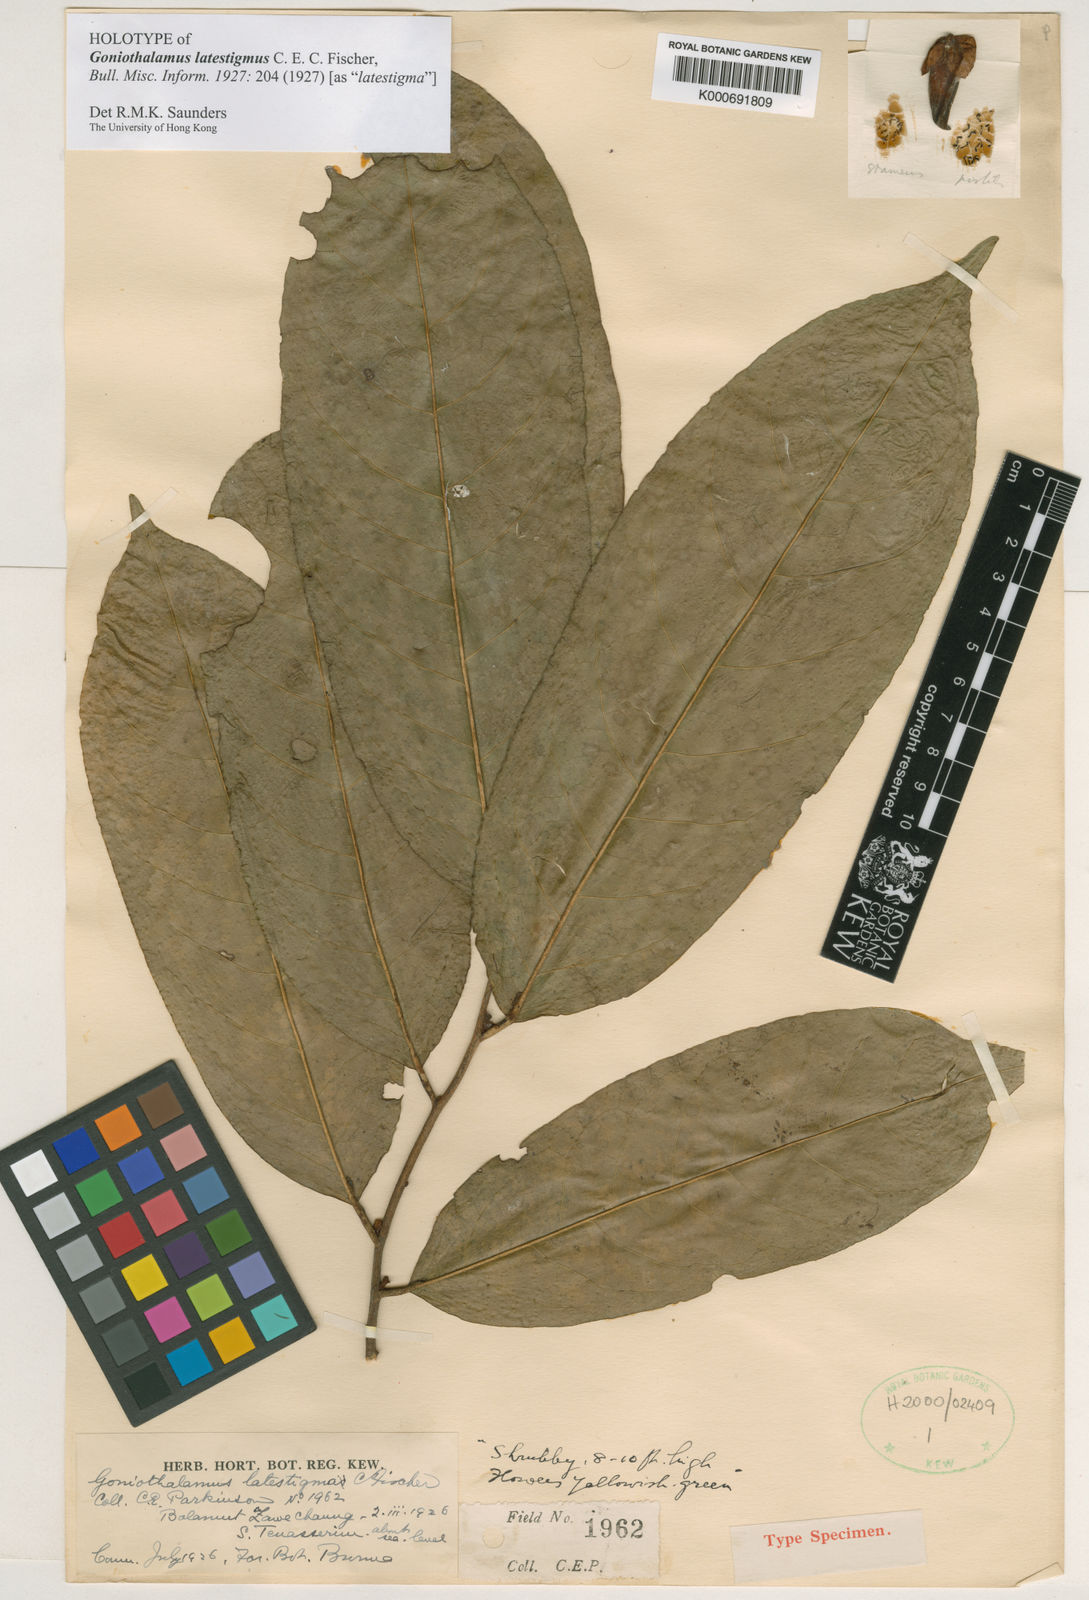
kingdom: Plantae
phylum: Tracheophyta
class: Magnoliopsida
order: Magnoliales
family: Annonaceae
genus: Goniothalamus
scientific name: Goniothalamus latestigma
